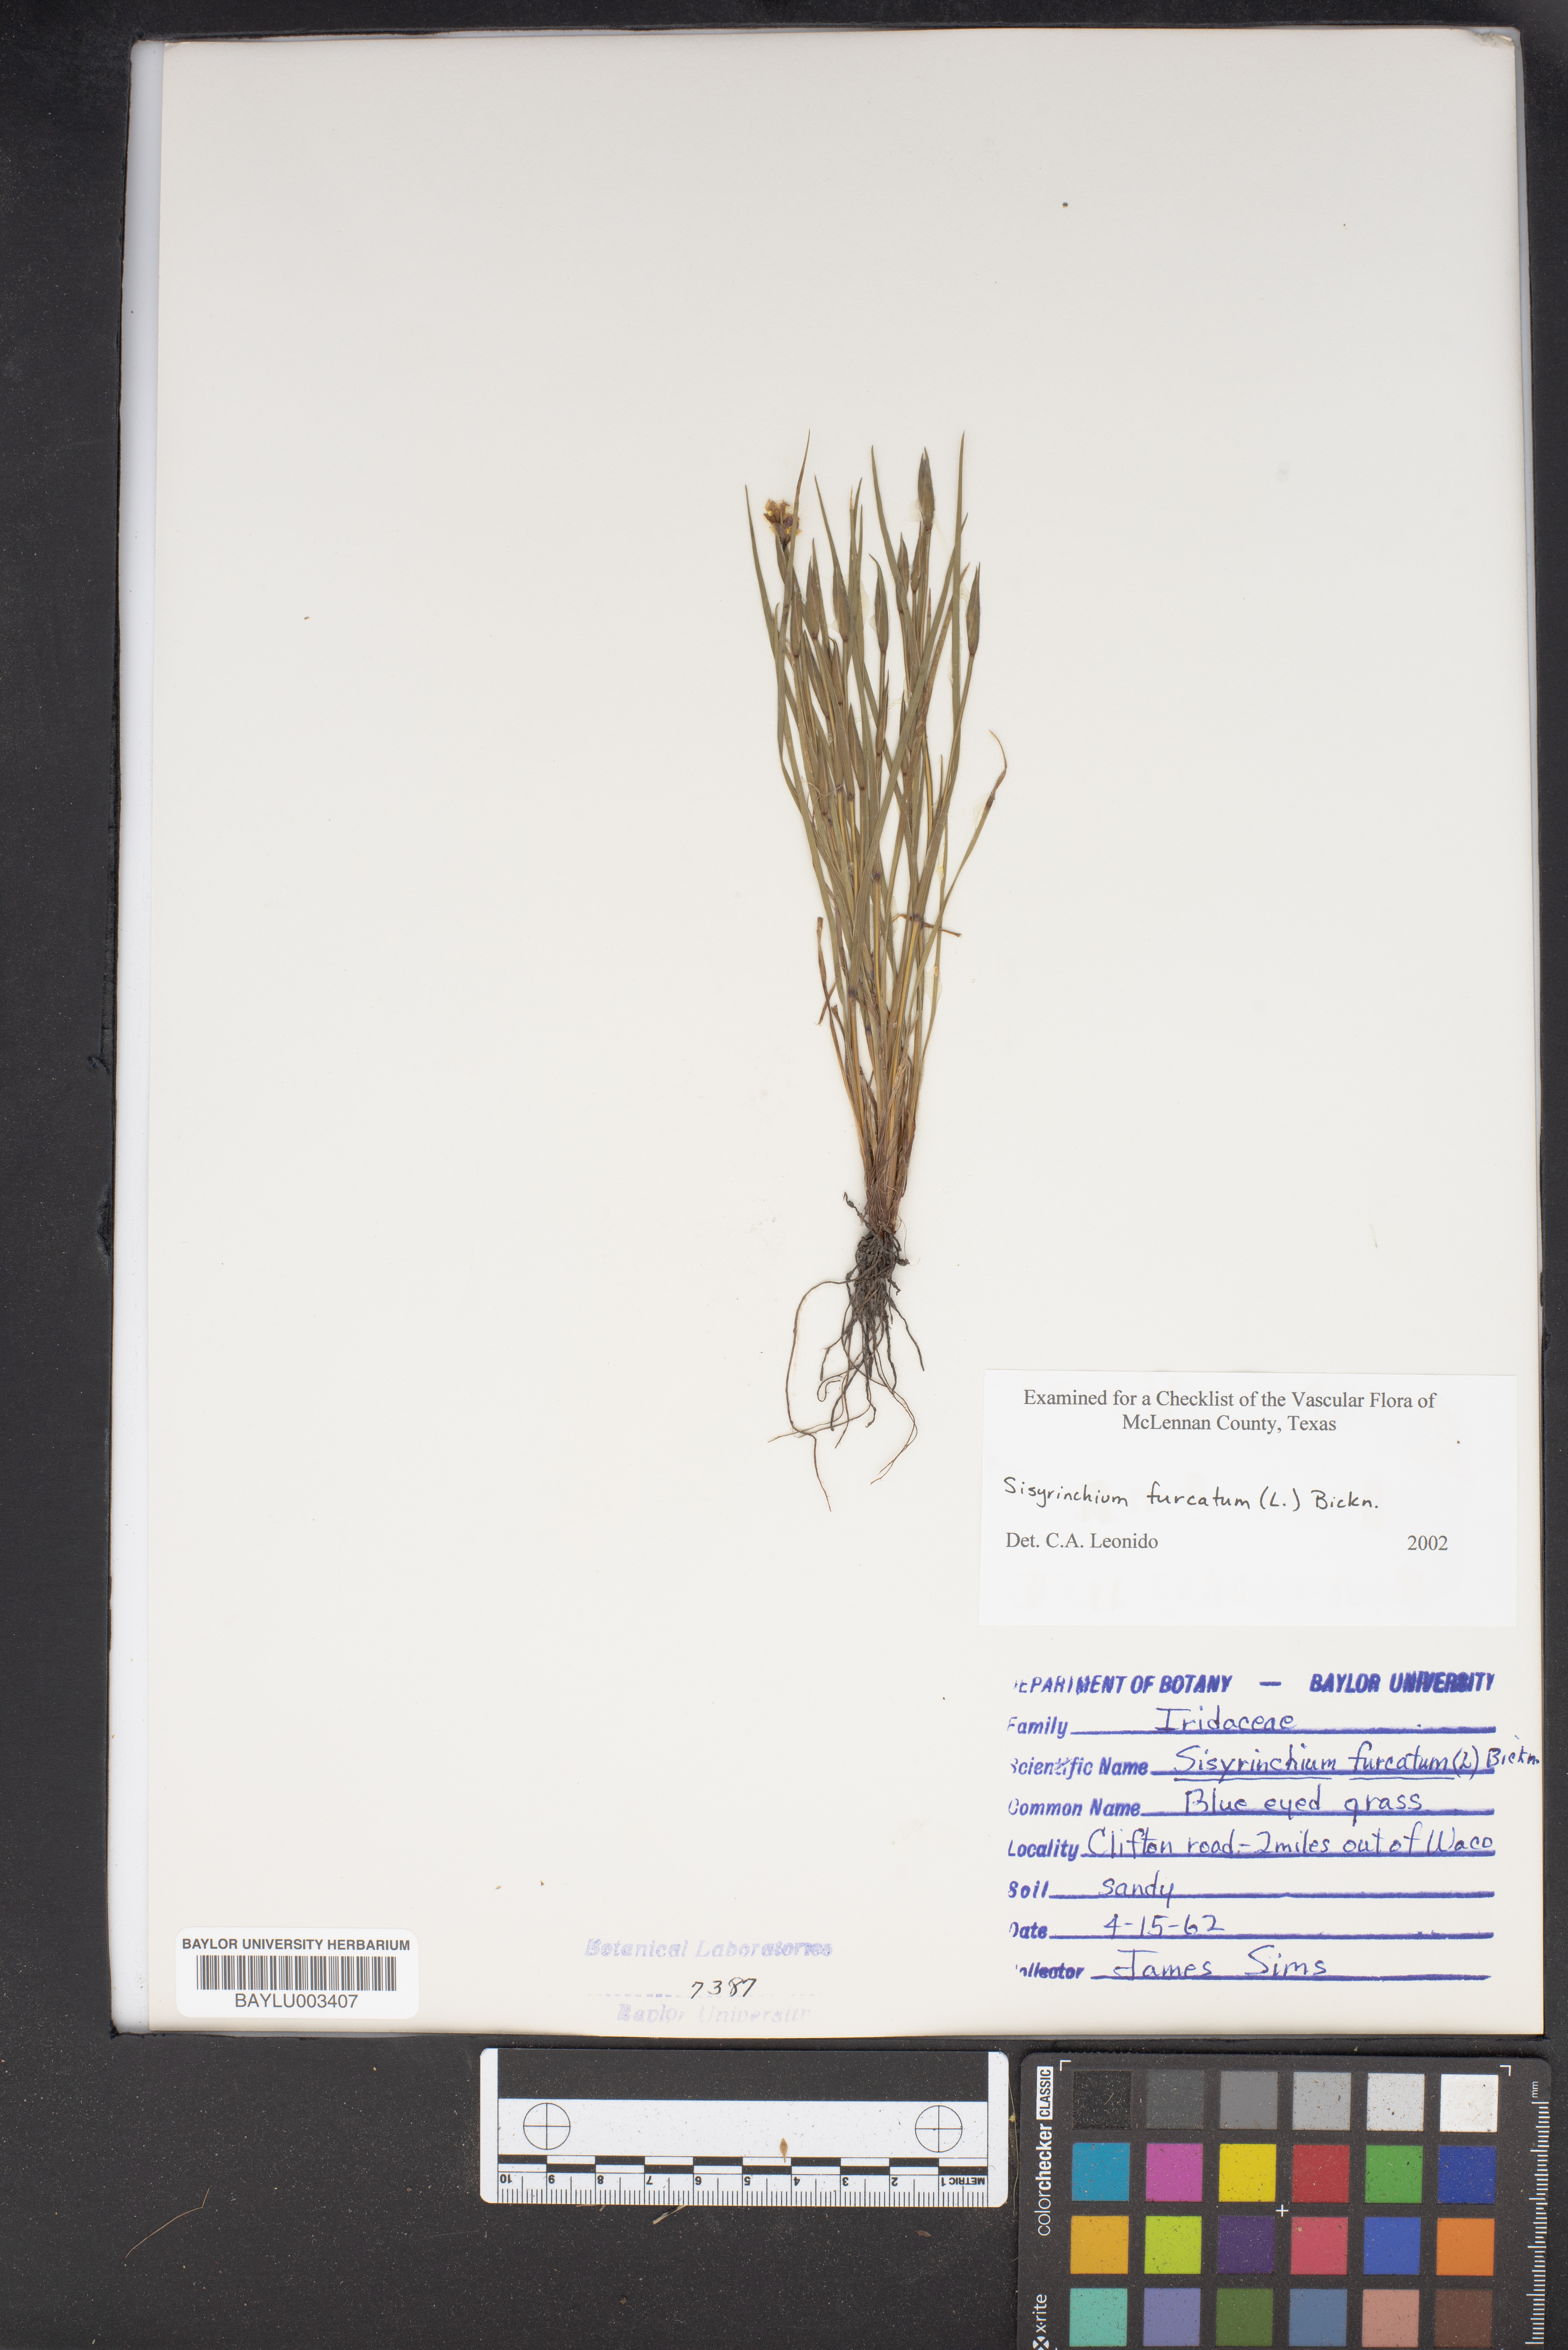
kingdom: Plantae
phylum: Tracheophyta
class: Liliopsida
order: Asparagales
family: Iridaceae
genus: Sisyrinchium
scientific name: Sisyrinchium fuscatum
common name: Coastal plain blue-eyed-grass
